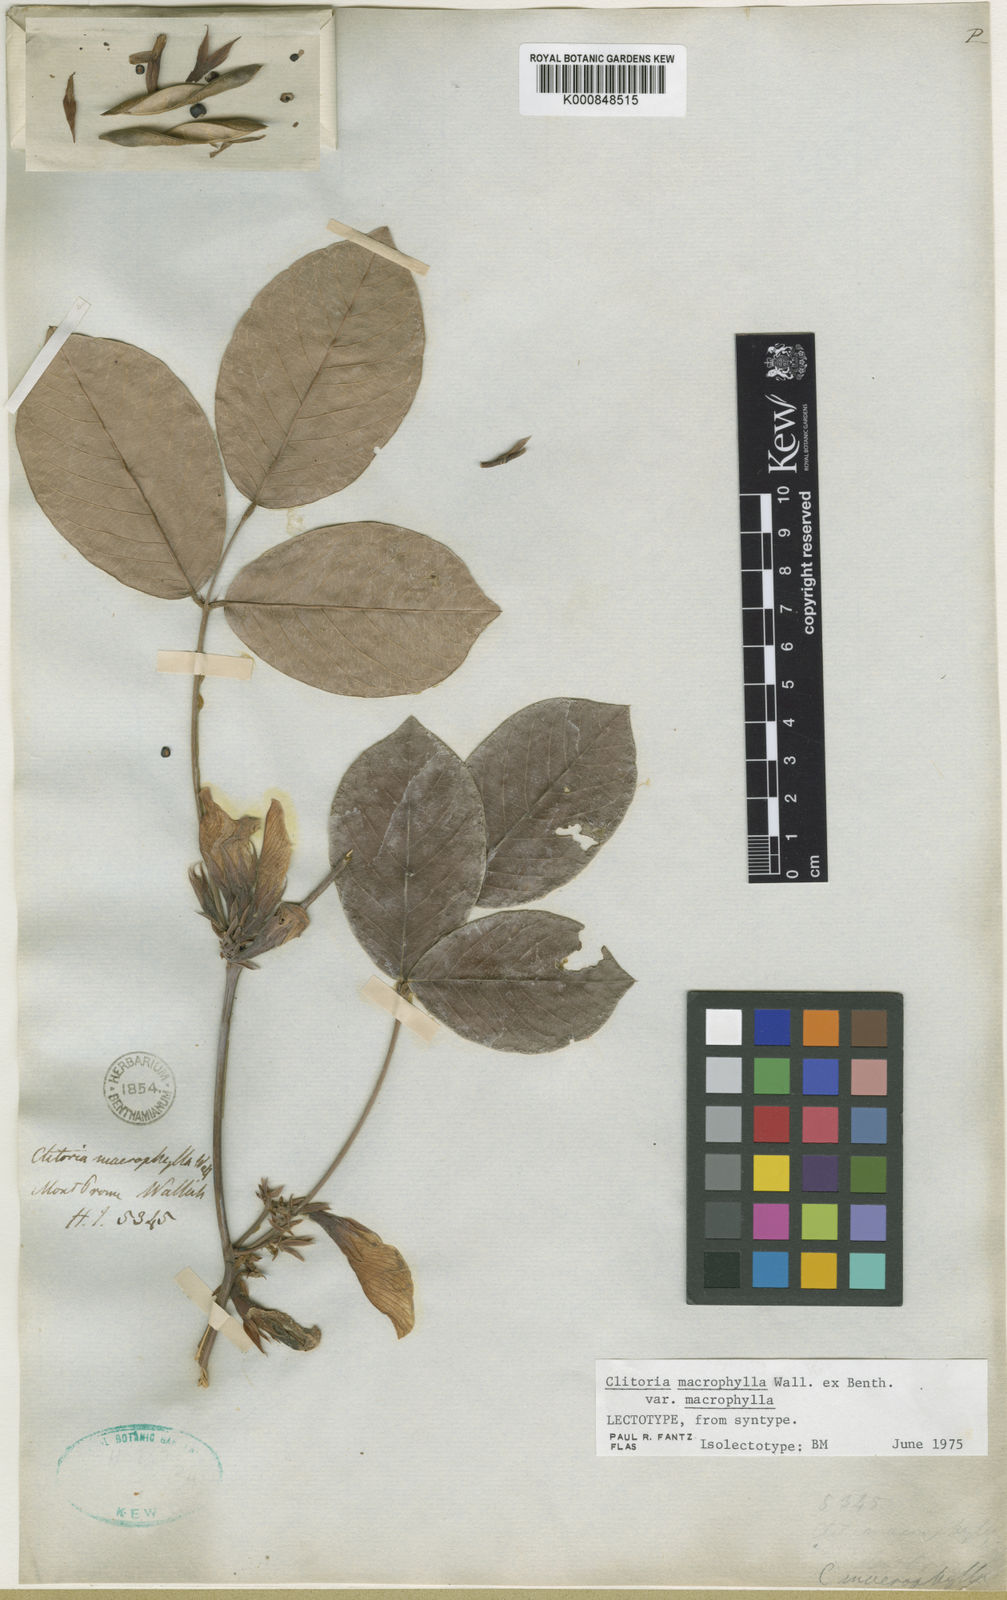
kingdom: Plantae
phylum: Tracheophyta
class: Magnoliopsida
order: Fabales
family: Fabaceae
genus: Clitoria
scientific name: Clitoria macrophylla
